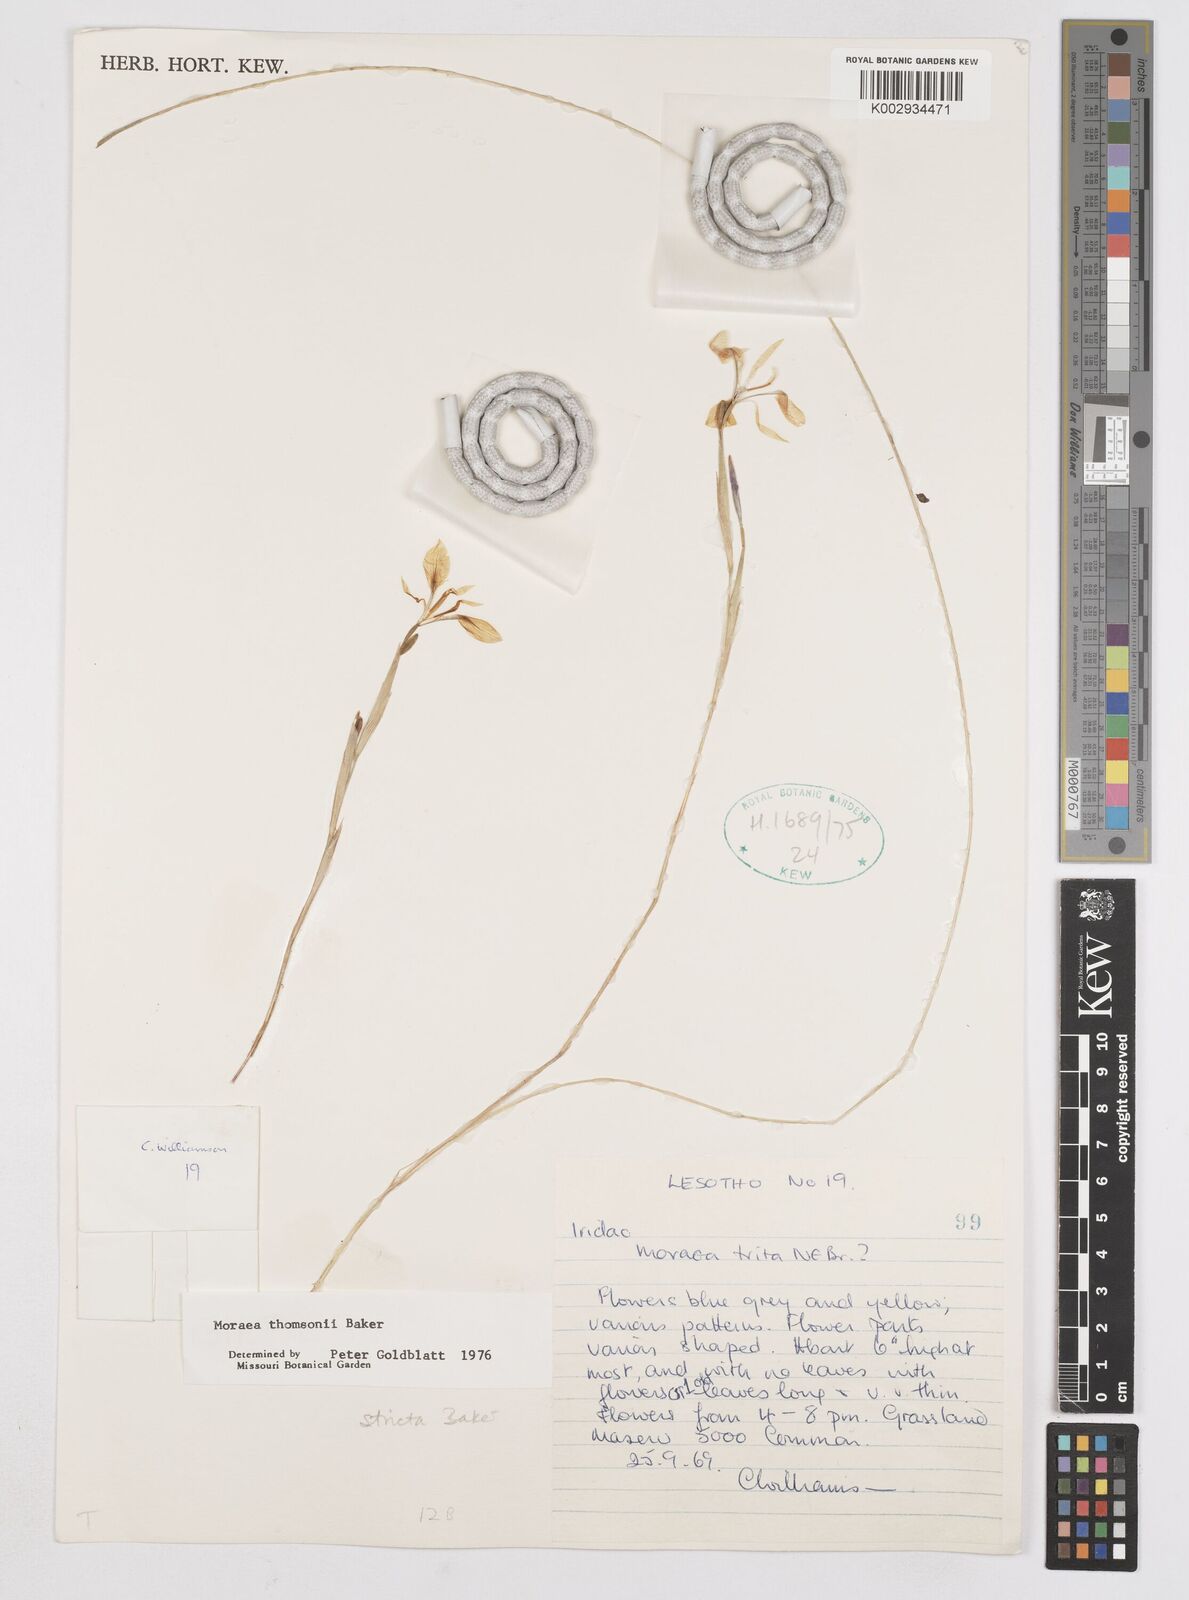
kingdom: Plantae
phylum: Tracheophyta
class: Liliopsida
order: Asparagales
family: Iridaceae
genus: Moraea
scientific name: Moraea thomsonii
